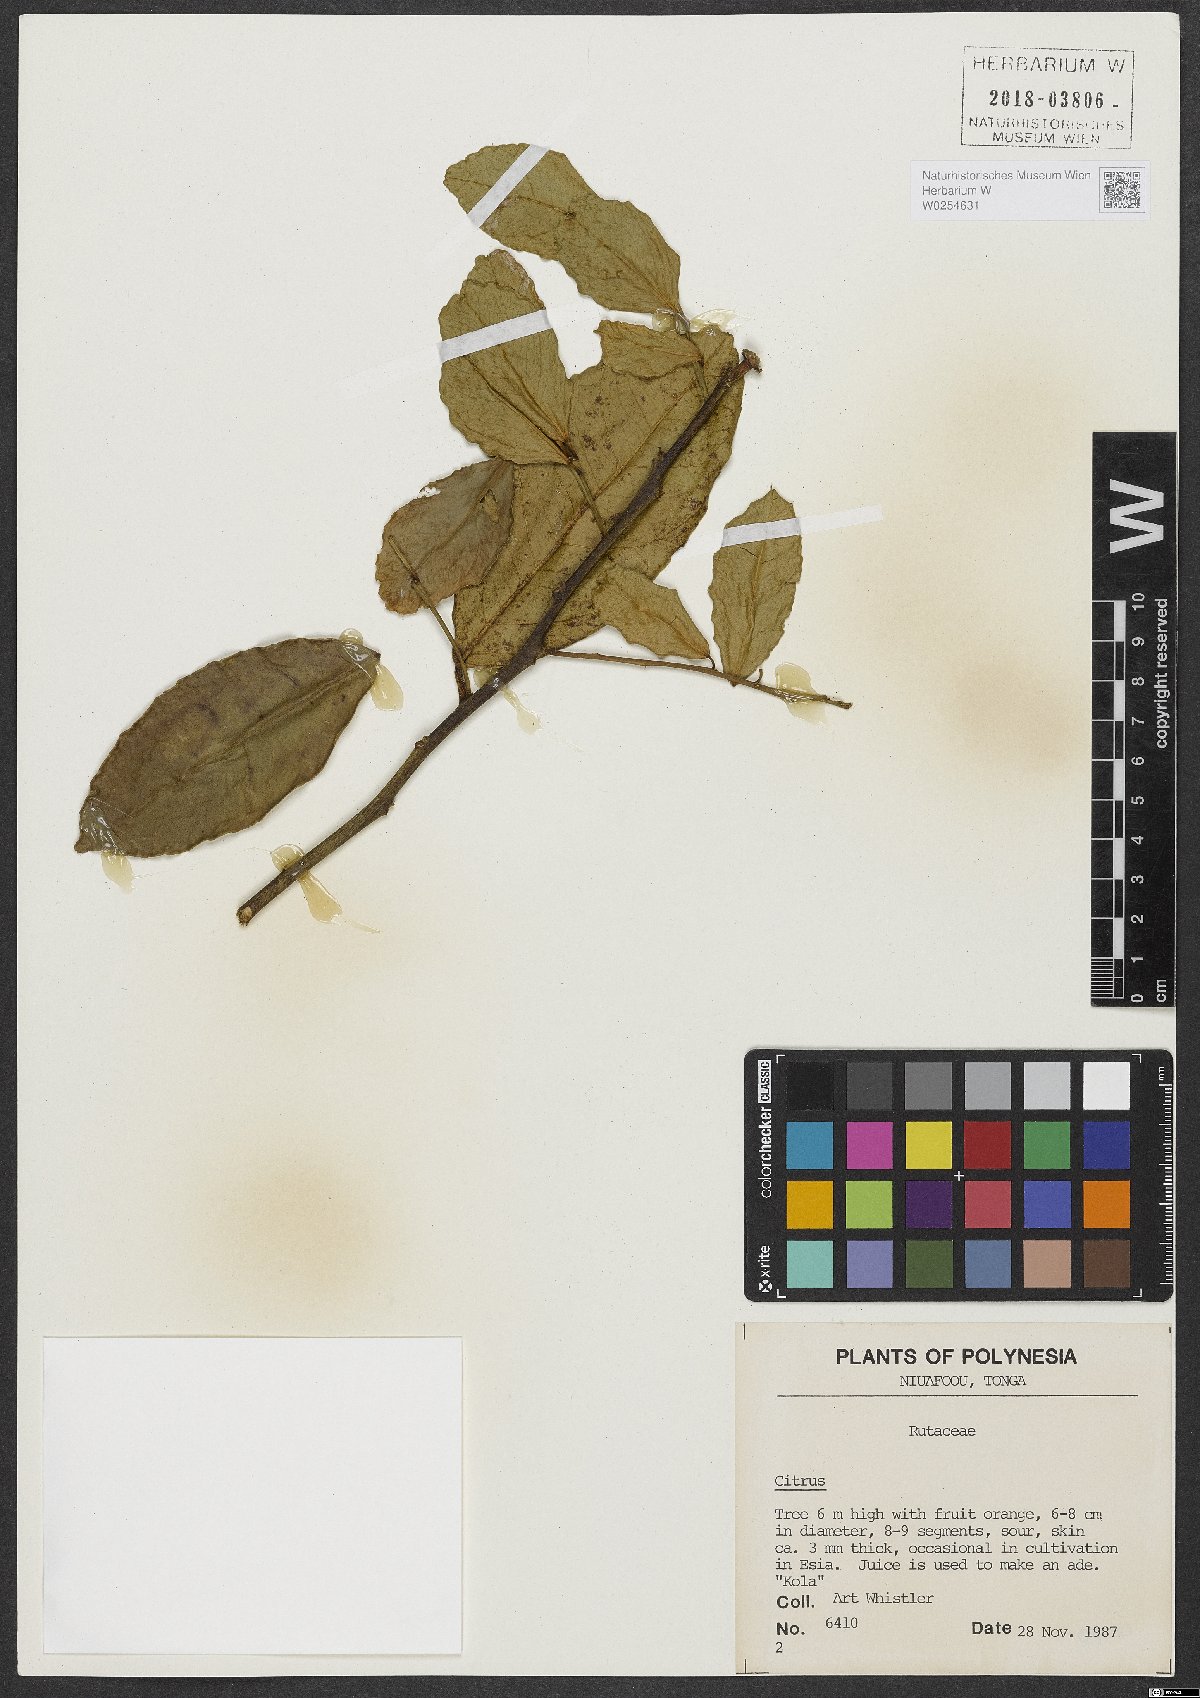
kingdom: Plantae
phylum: Tracheophyta
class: Magnoliopsida
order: Sapindales
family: Rutaceae
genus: Citrus
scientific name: Citrus
